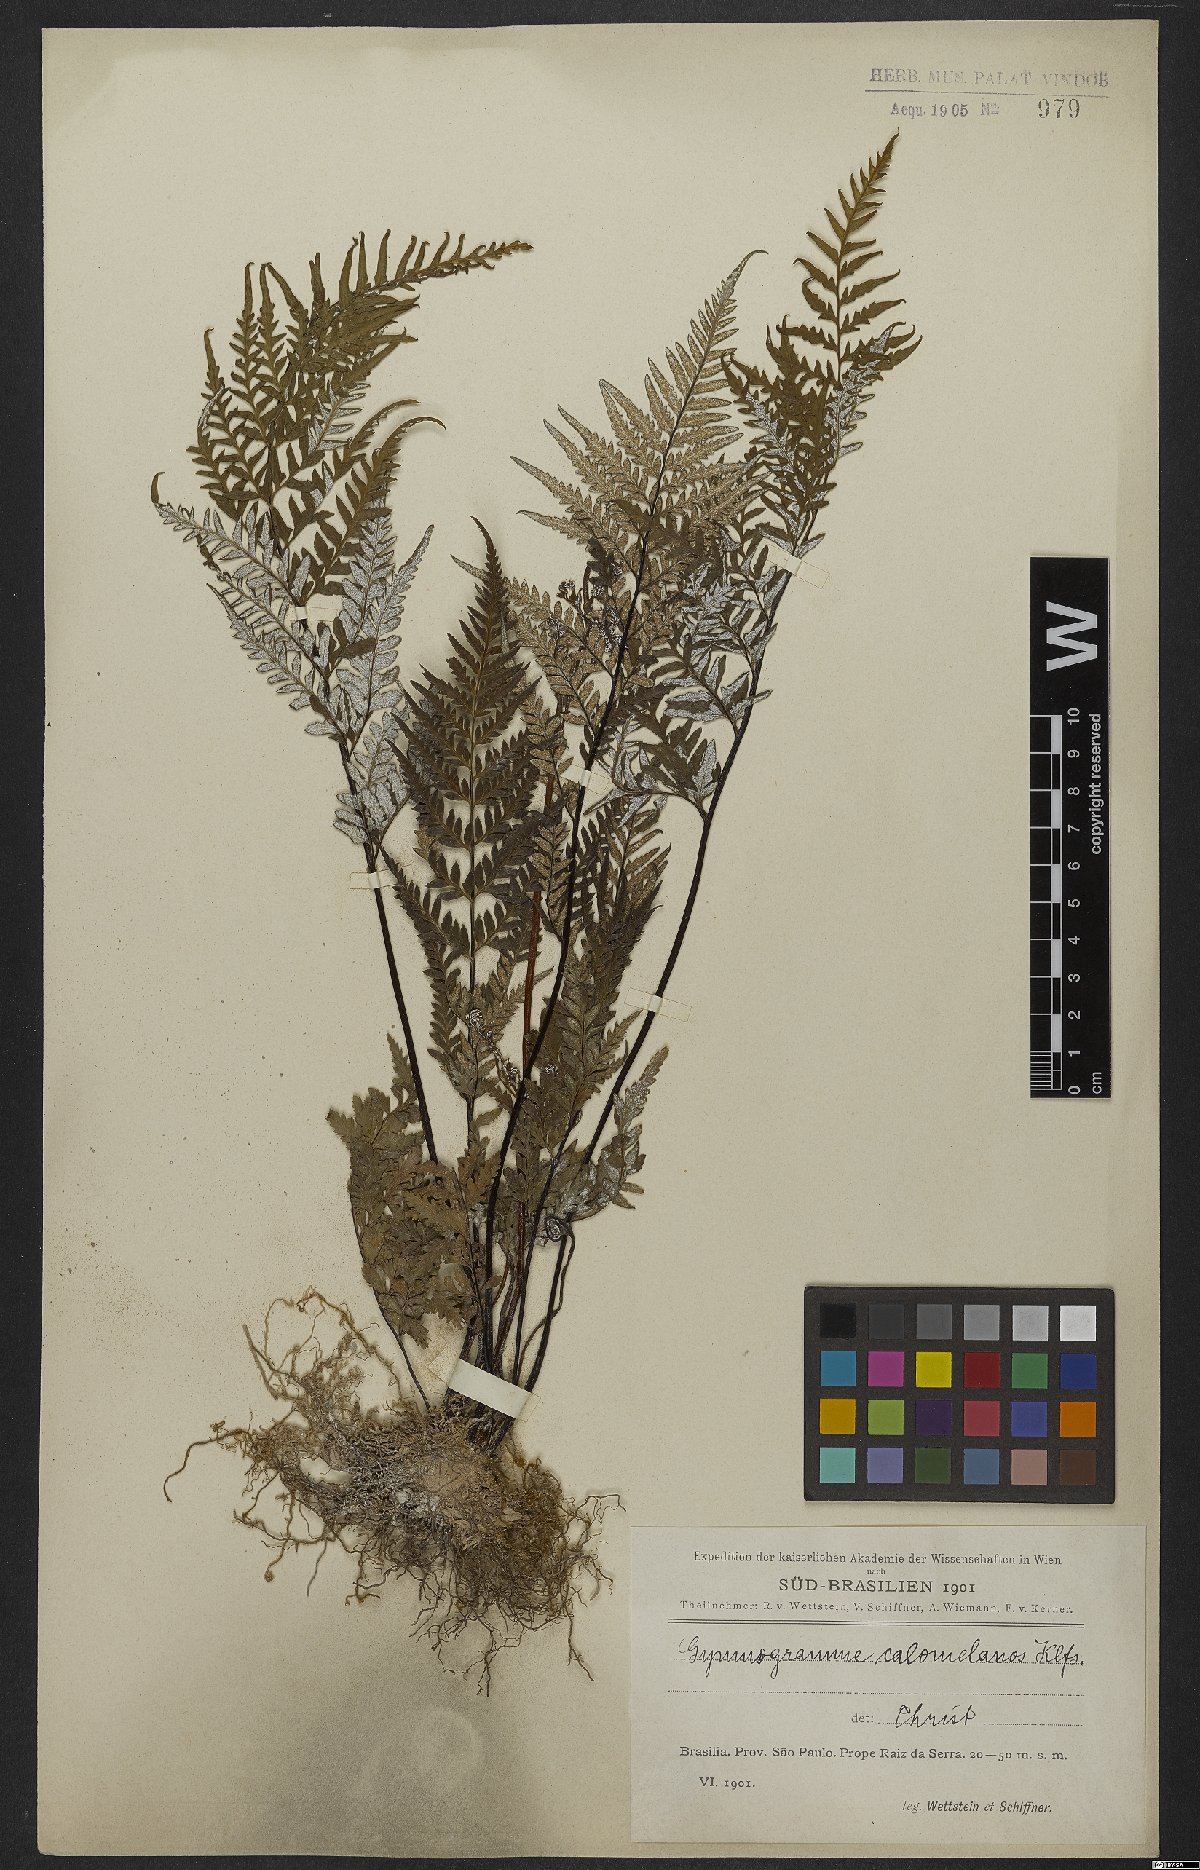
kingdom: Plantae
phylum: Tracheophyta
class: Polypodiopsida
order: Polypodiales
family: Pteridaceae
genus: Pityrogramma
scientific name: Pityrogramma calomelanos
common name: Dixie silverback fern
